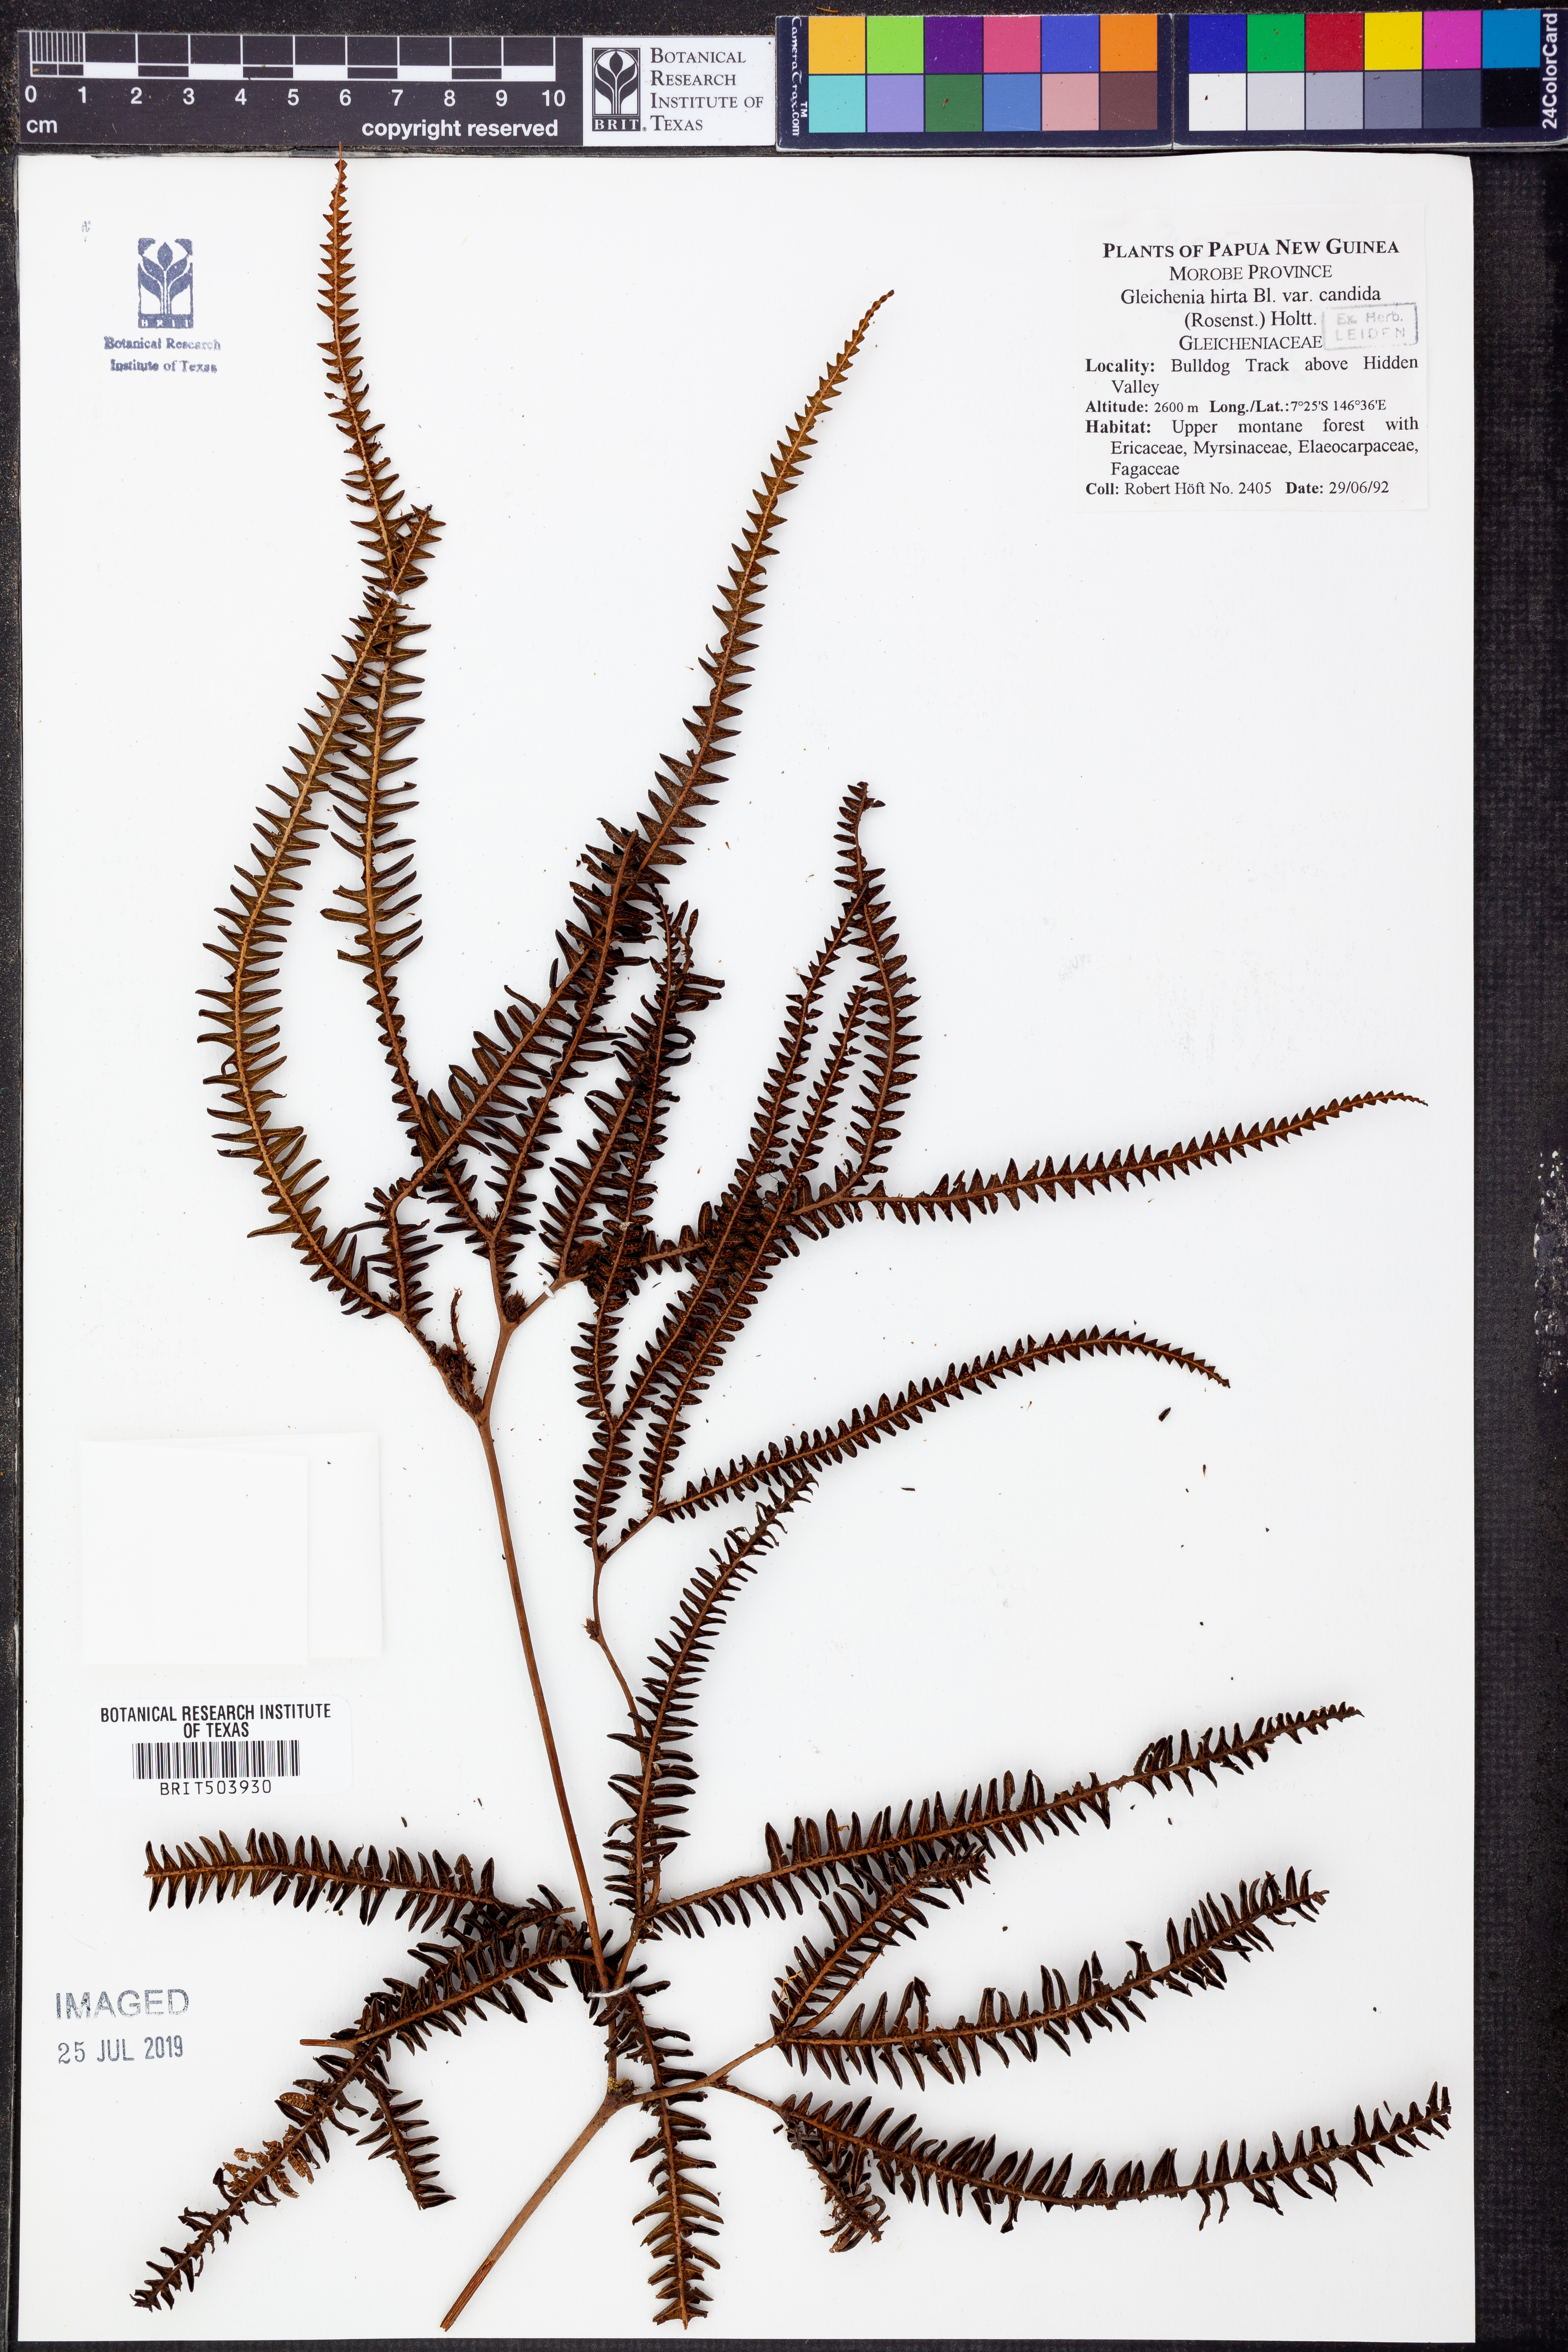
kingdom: Plantae
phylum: Tracheophyta
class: Polypodiopsida
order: Gleicheniales
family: Gleicheniaceae
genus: Sticherus
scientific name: Sticherus hirtus
